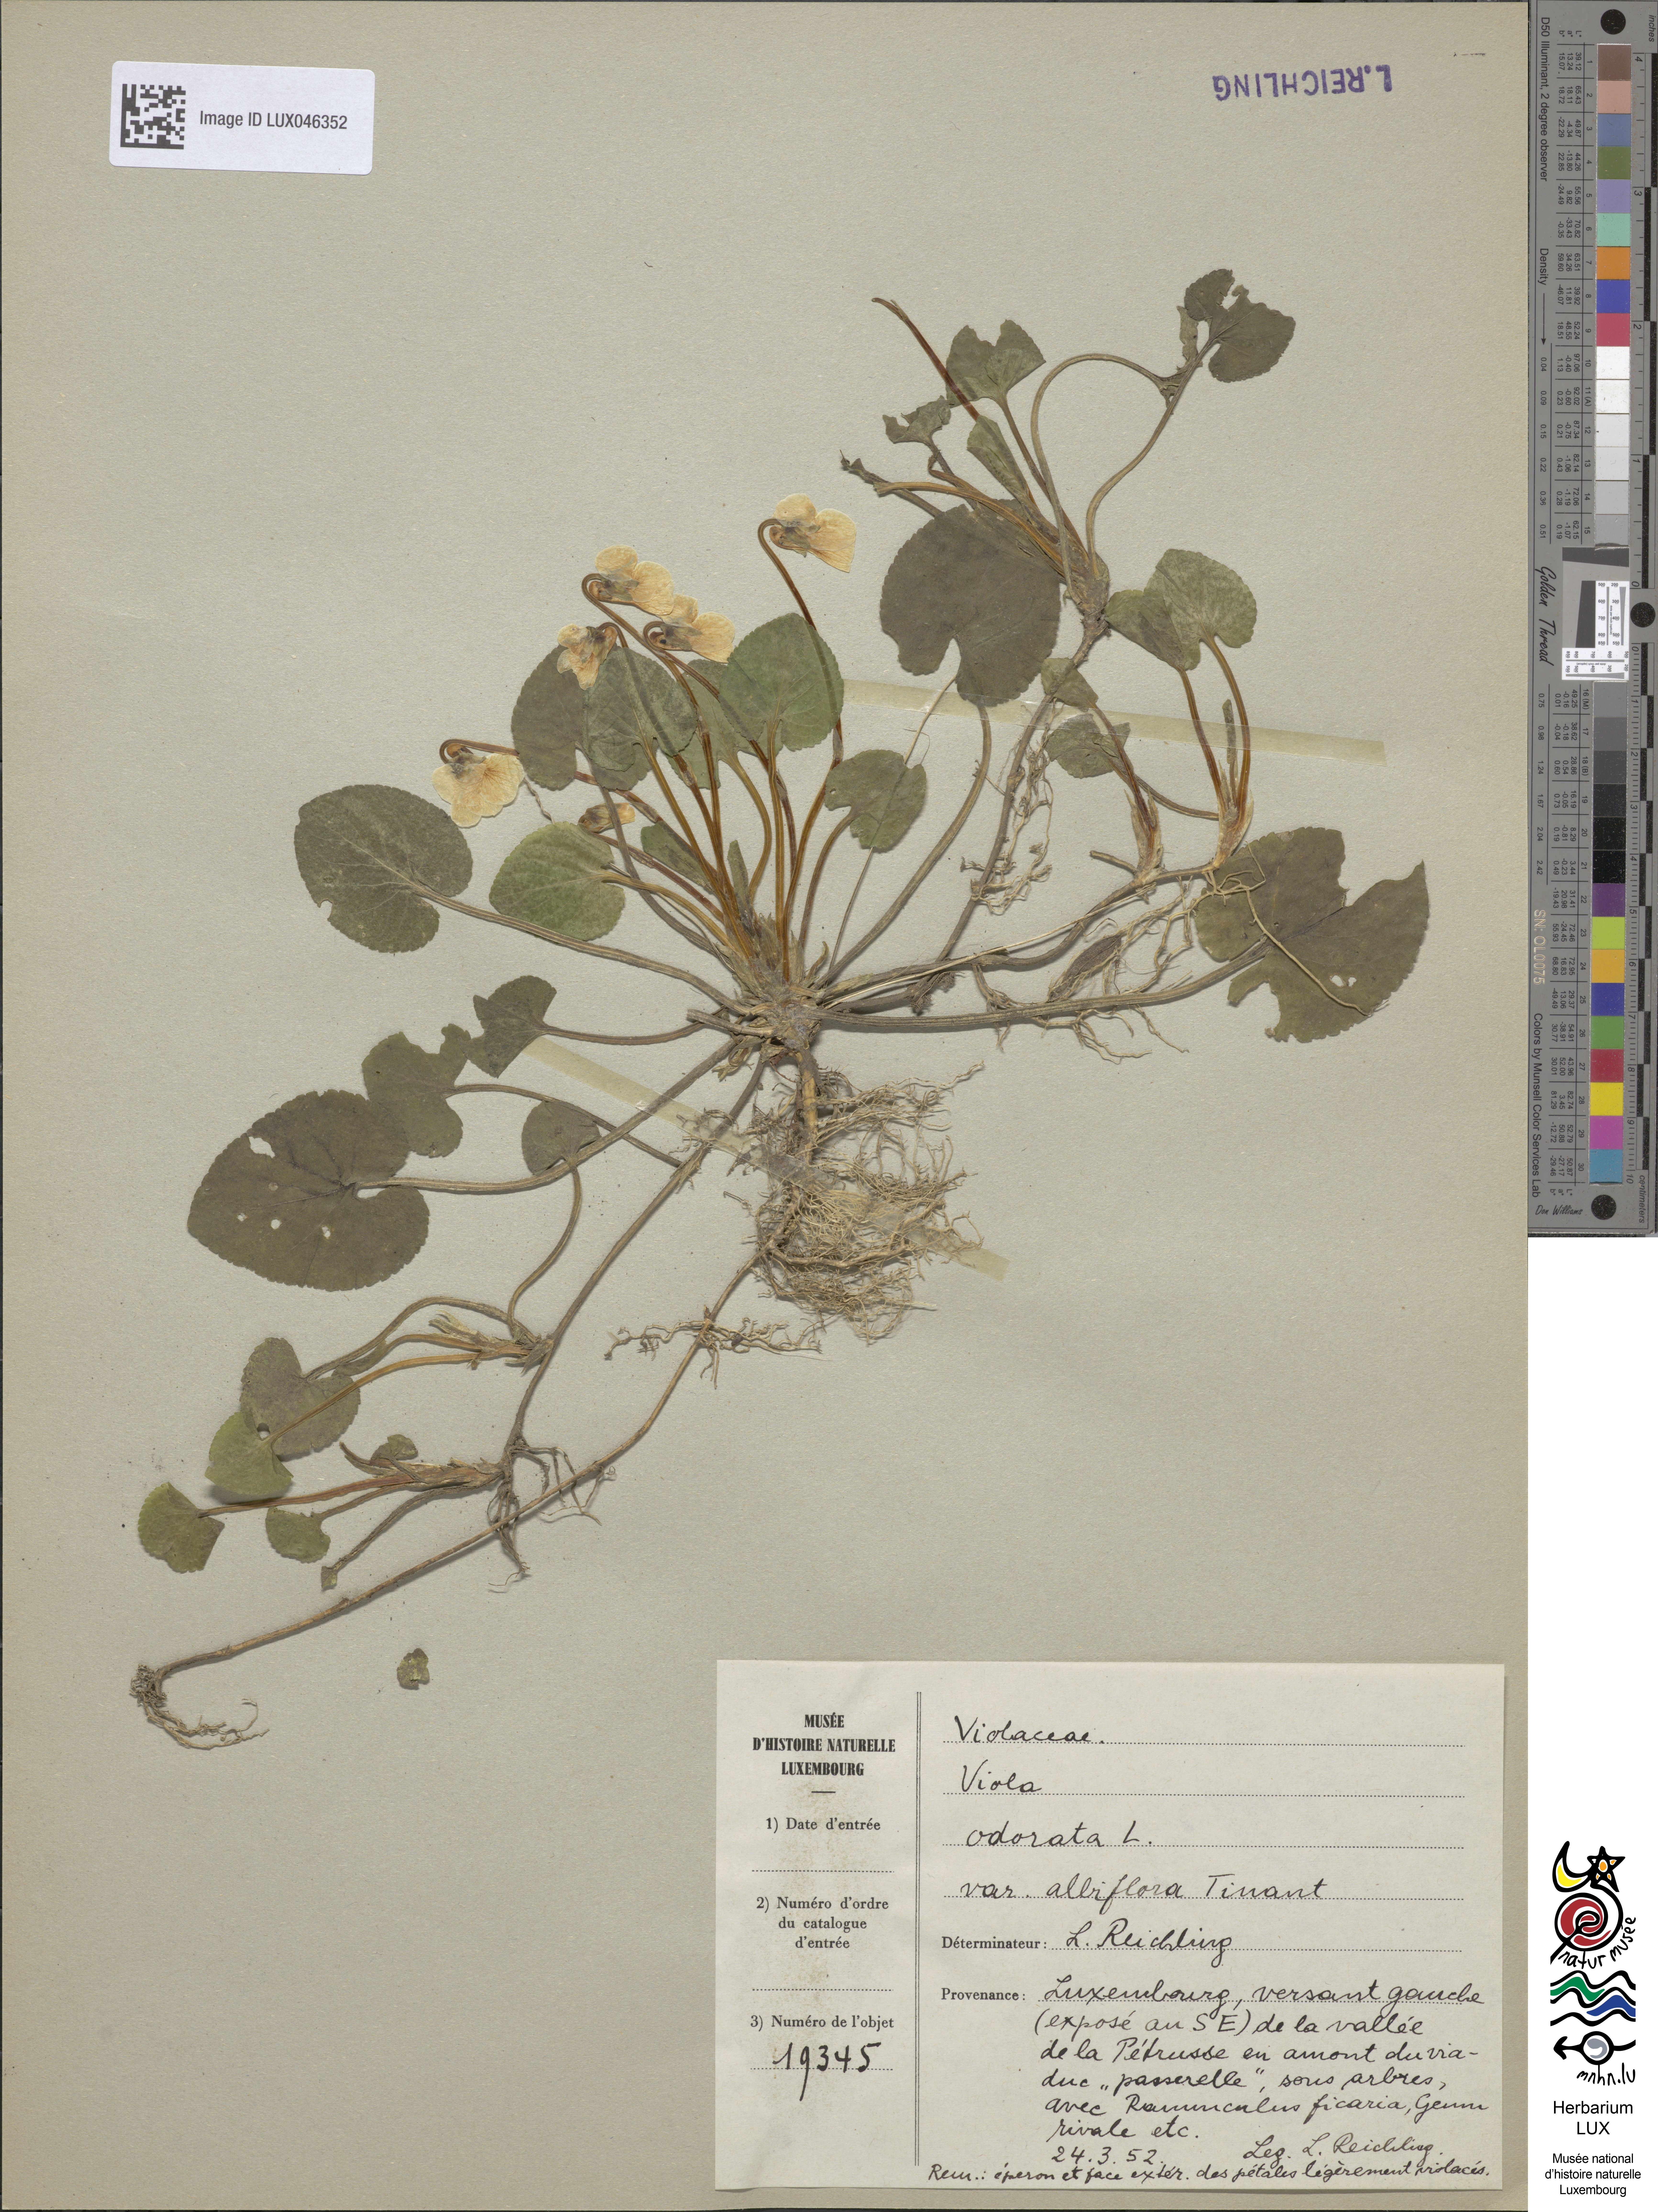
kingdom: Plantae
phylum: Tracheophyta
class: Magnoliopsida
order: Malpighiales
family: Violaceae
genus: Viola
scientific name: Viola odorata
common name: Sweet violet
